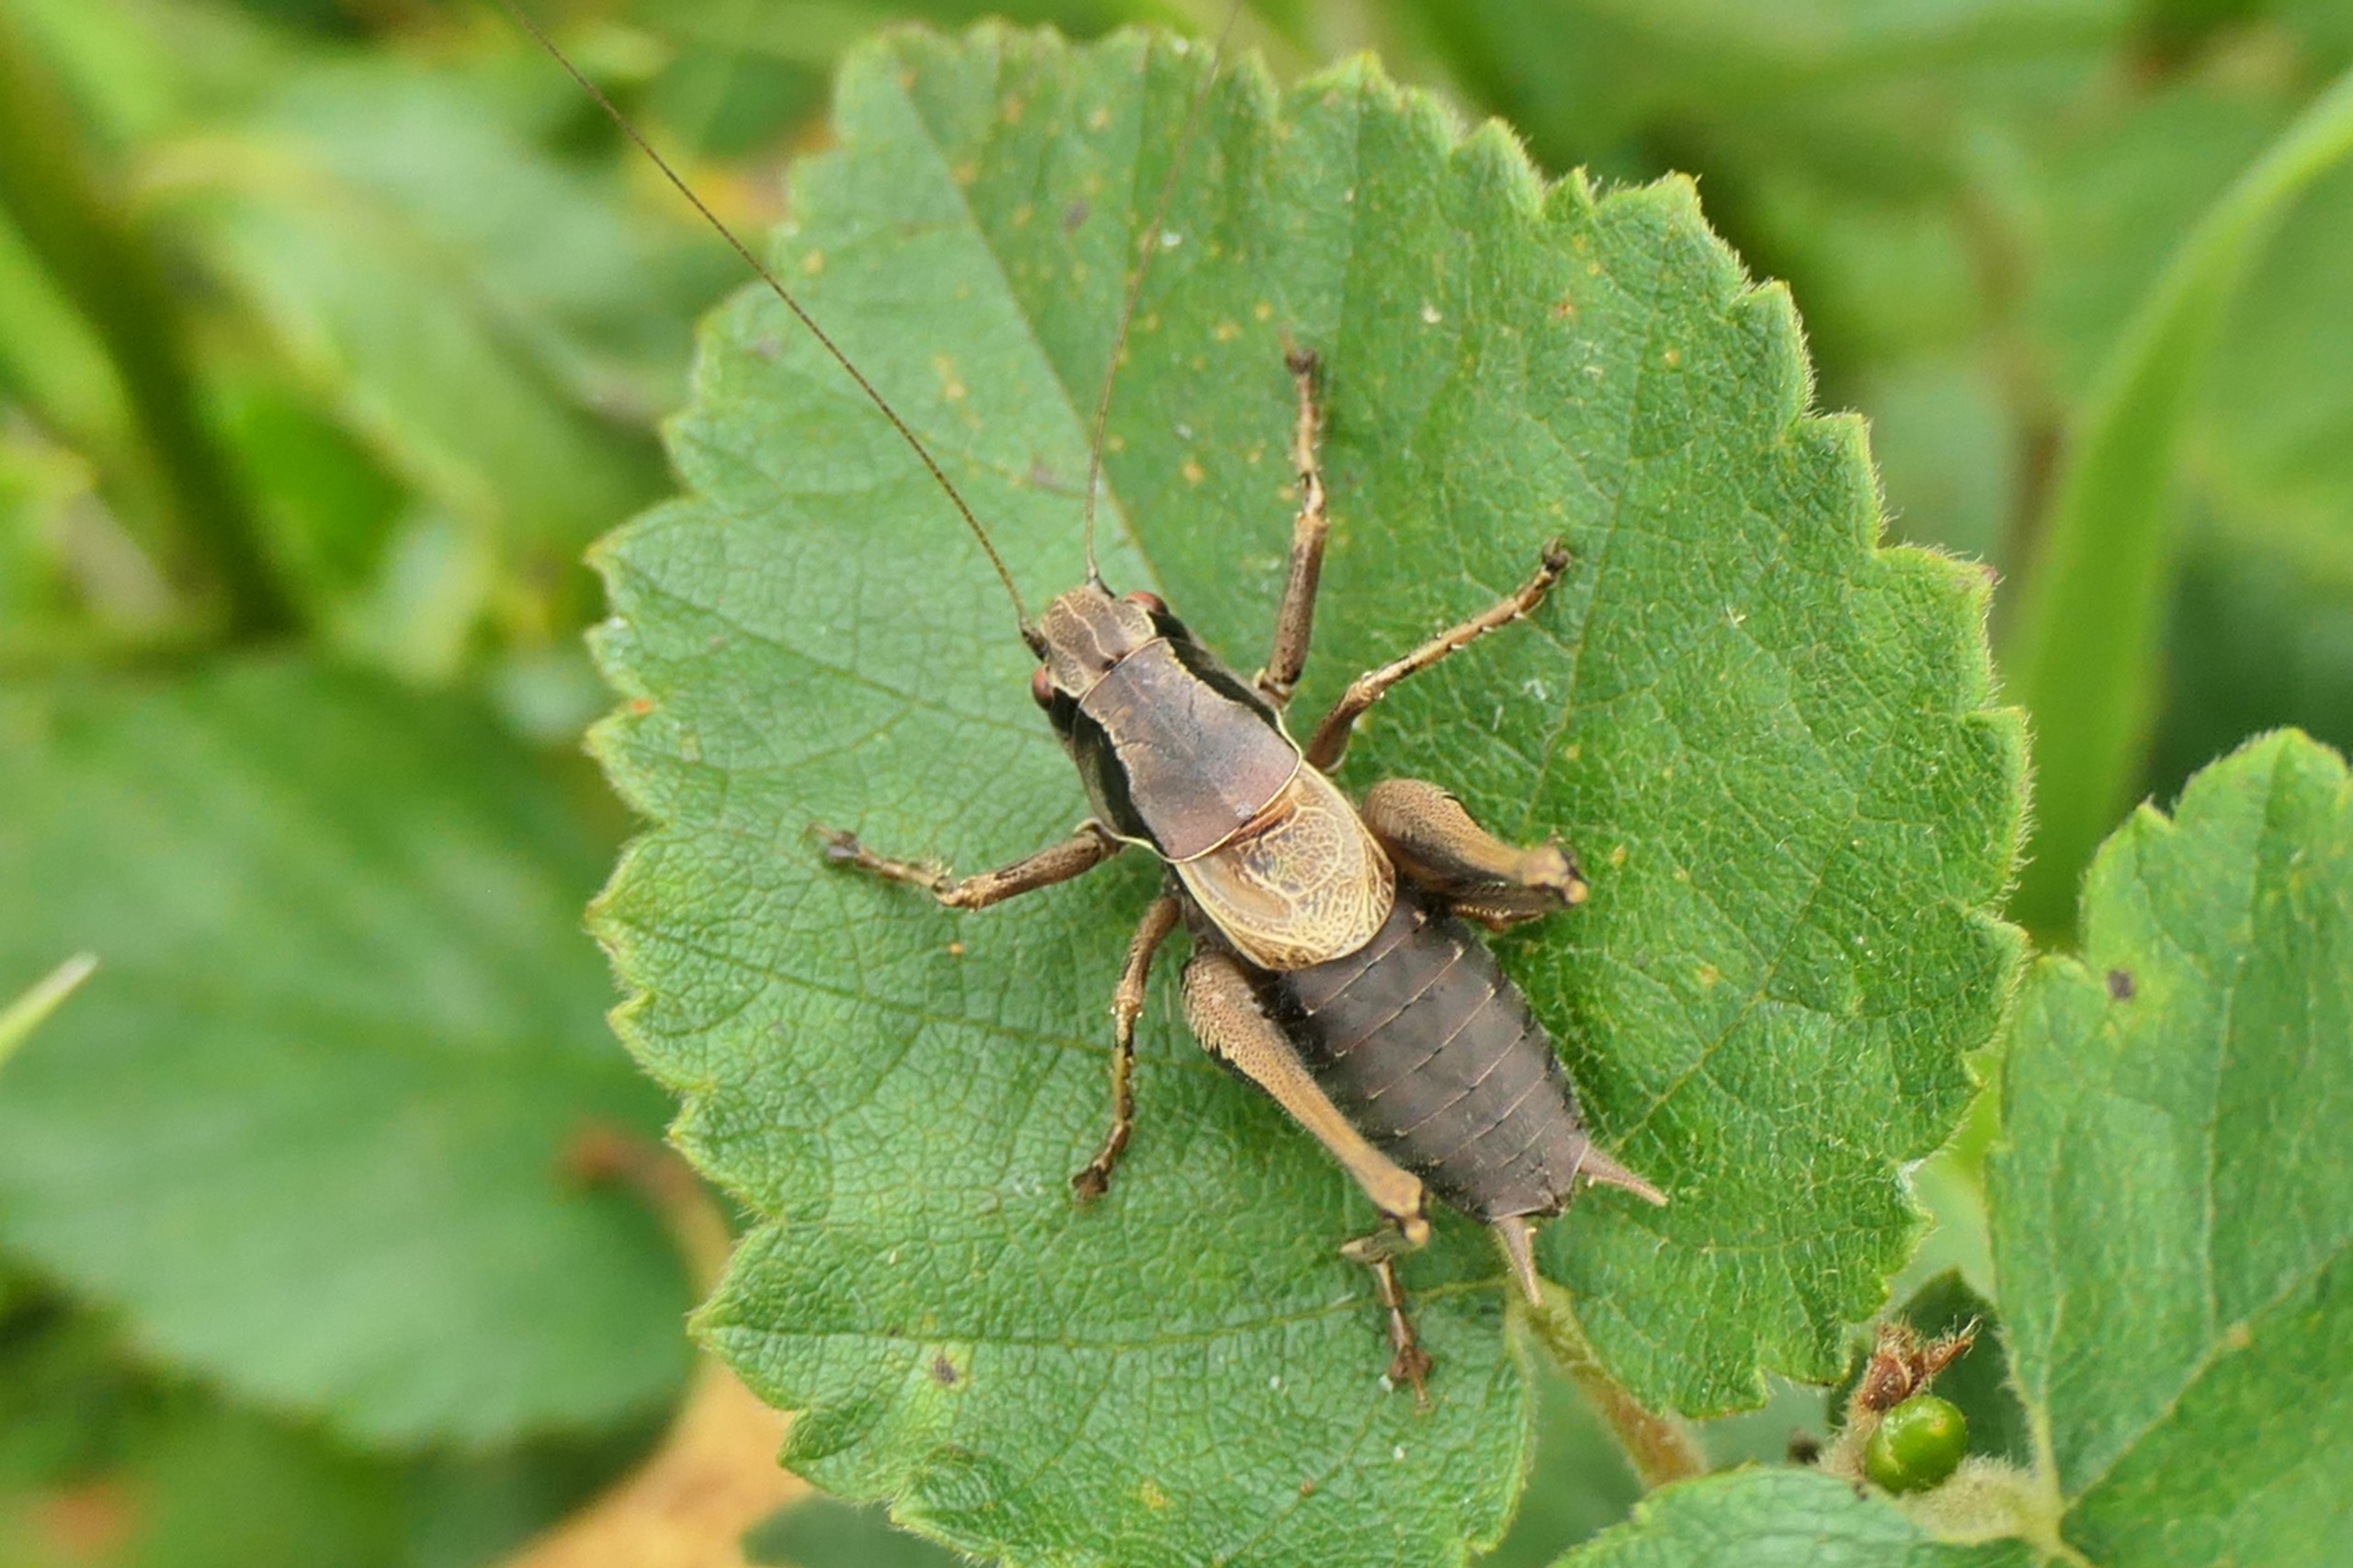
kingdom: Animalia
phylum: Arthropoda
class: Insecta
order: Orthoptera
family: Tettigoniidae
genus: Pholidoptera
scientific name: Pholidoptera griseoaptera
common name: Buskgræshoppe
